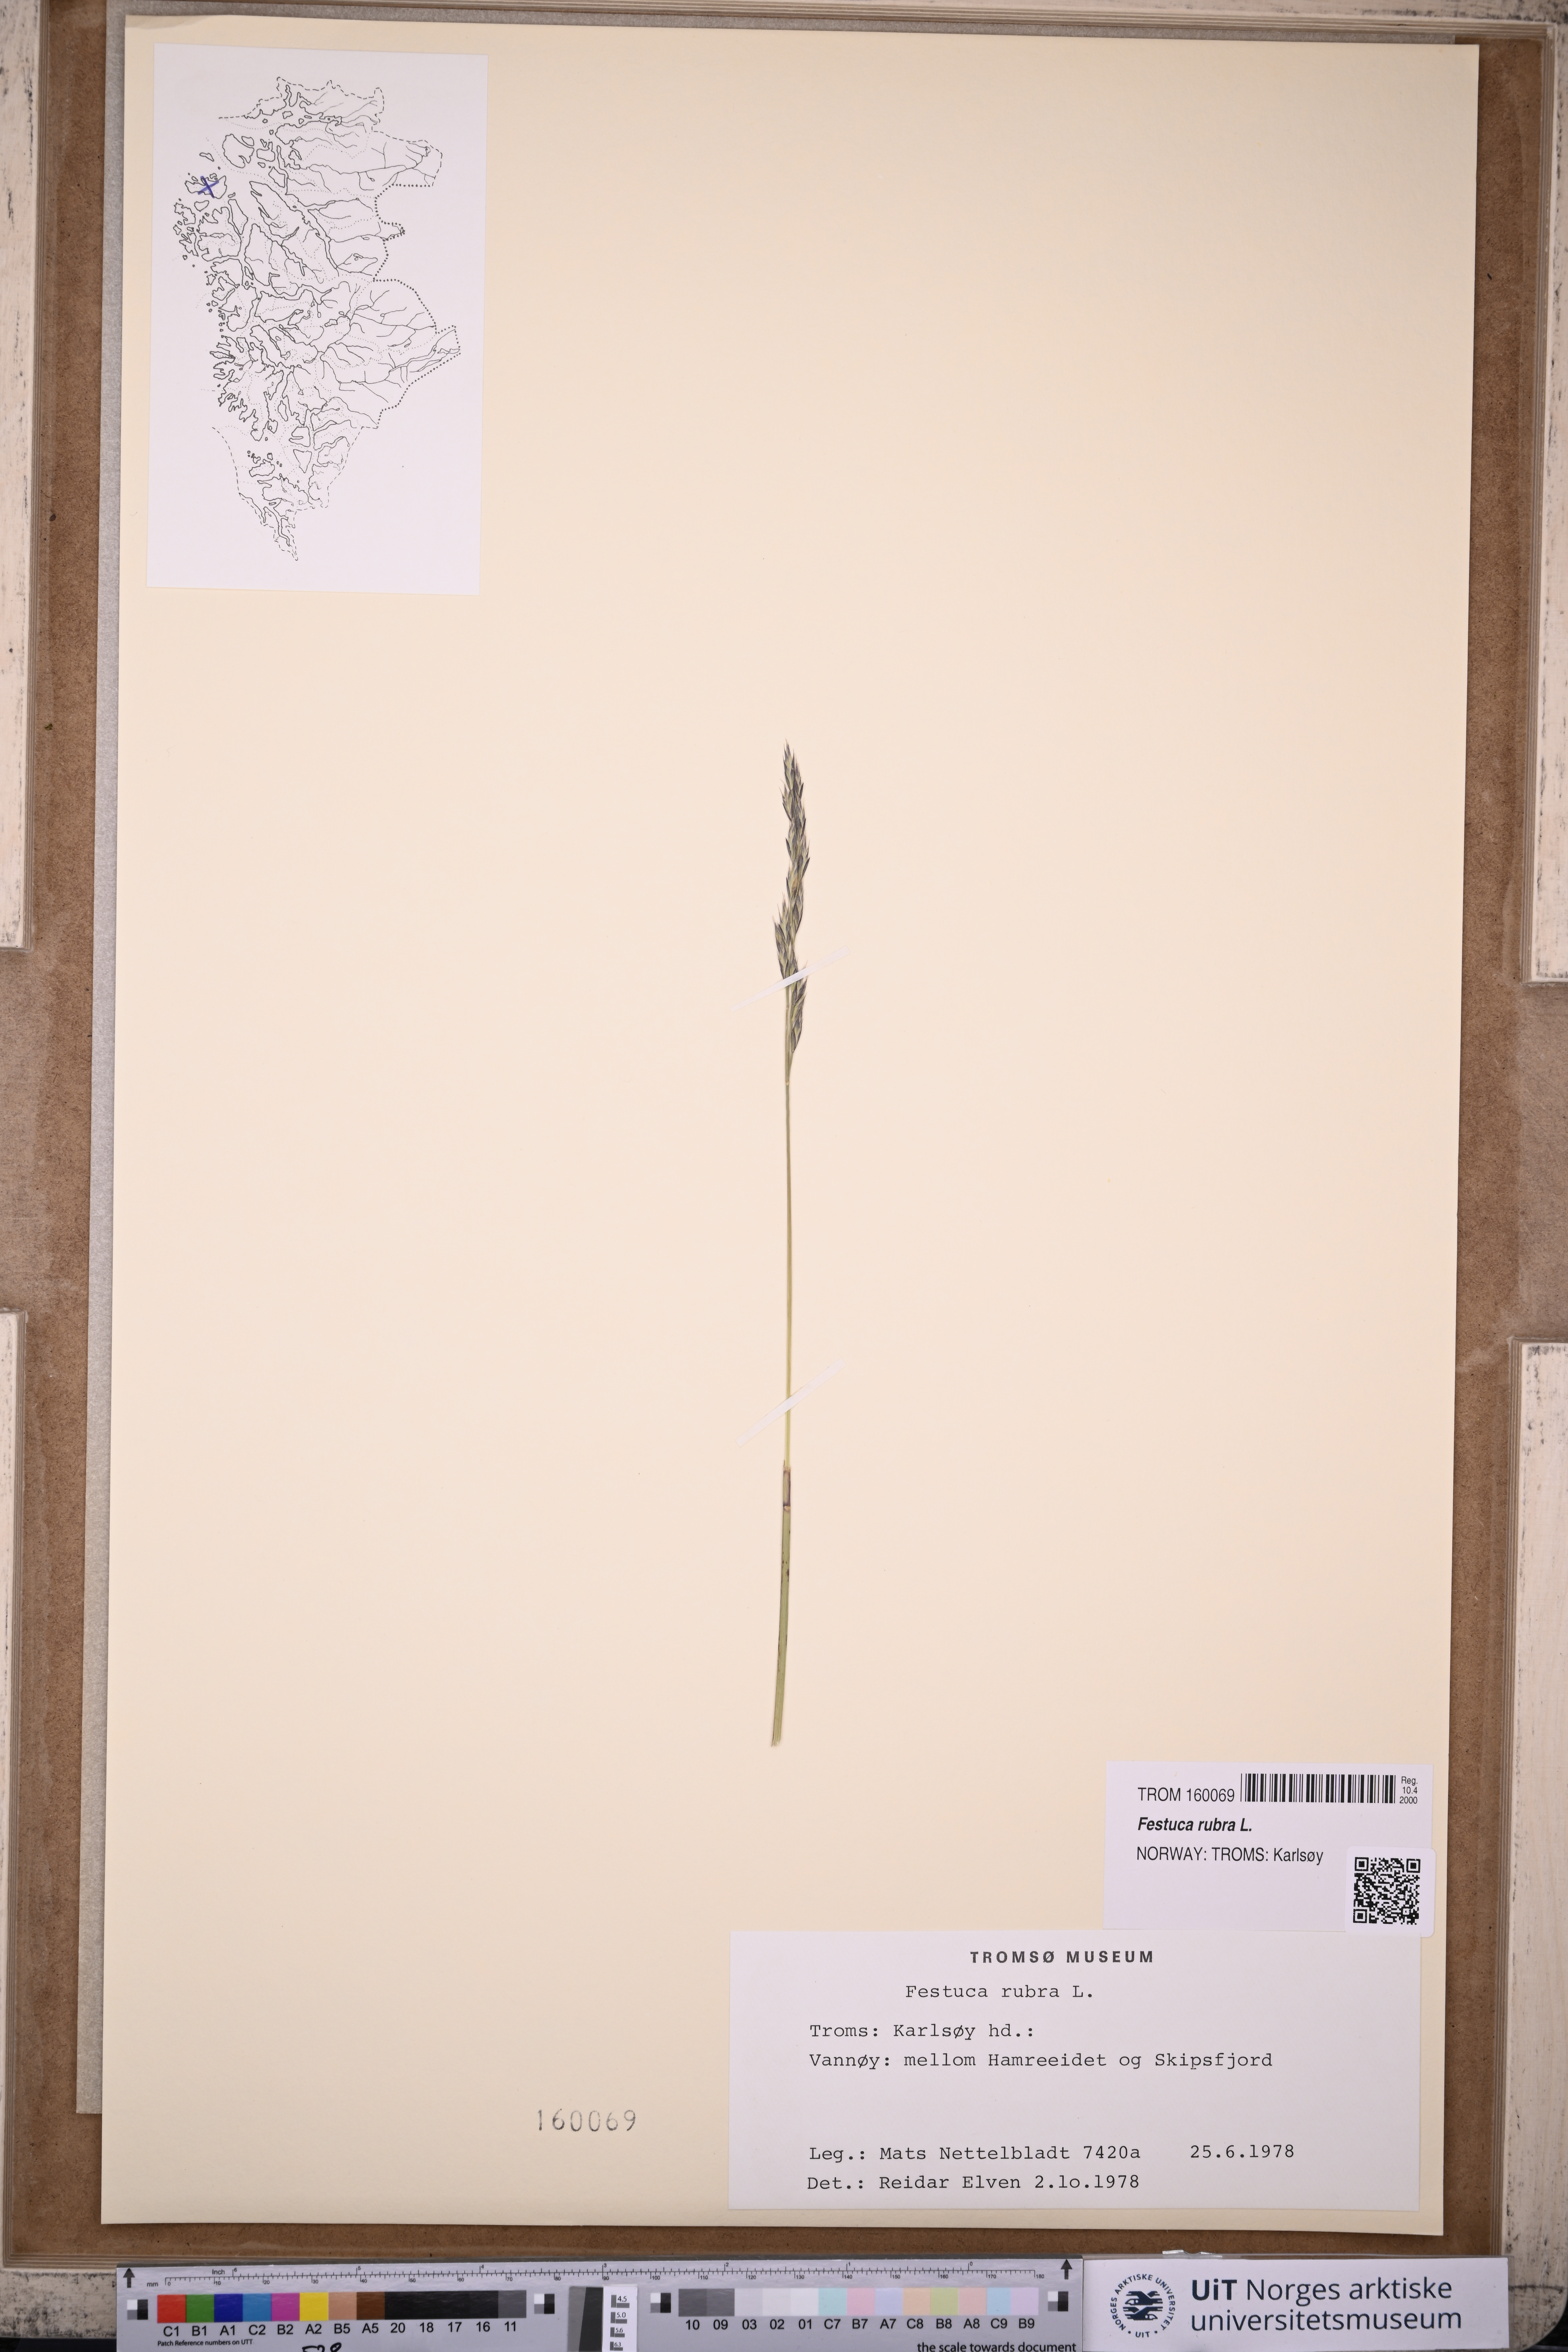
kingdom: Plantae
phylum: Tracheophyta
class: Liliopsida
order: Poales
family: Poaceae
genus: Festuca
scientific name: Festuca rubra
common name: Red fescue
